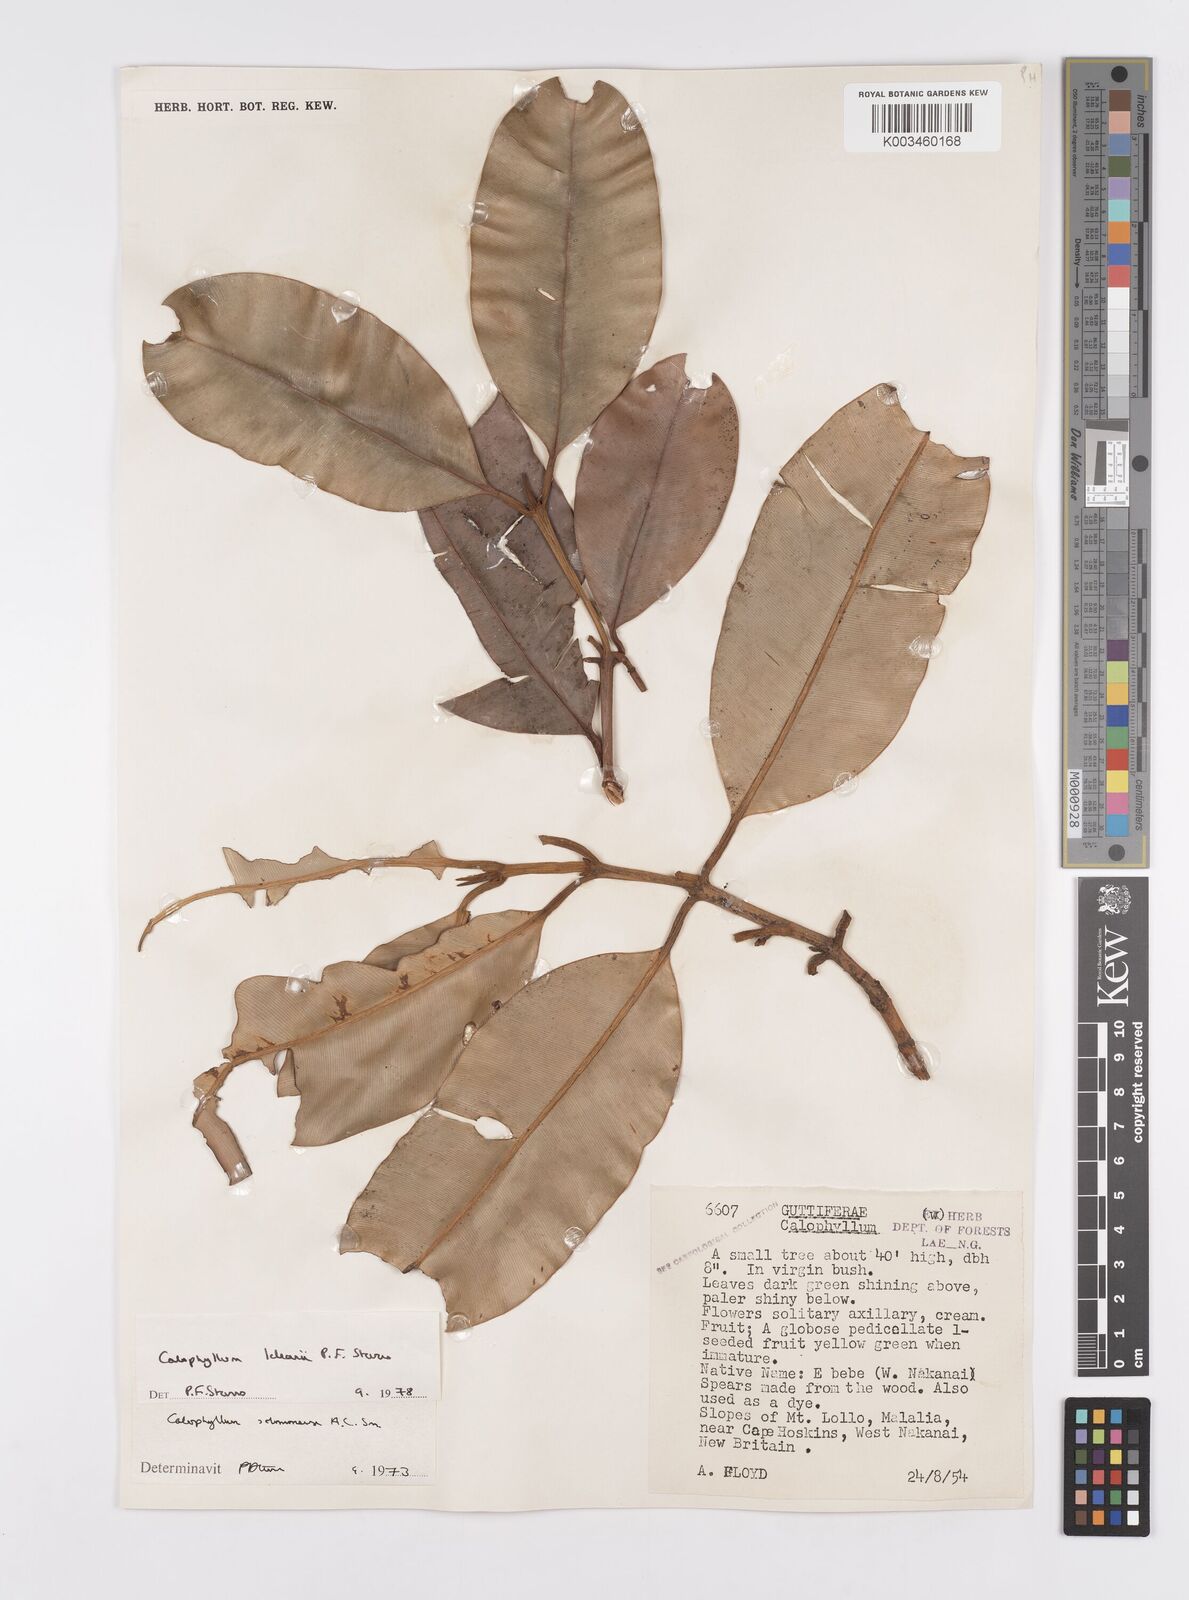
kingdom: Plantae
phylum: Tracheophyta
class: Magnoliopsida
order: Malpighiales
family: Calophyllaceae
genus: Calophyllum
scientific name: Calophyllum leleanii
